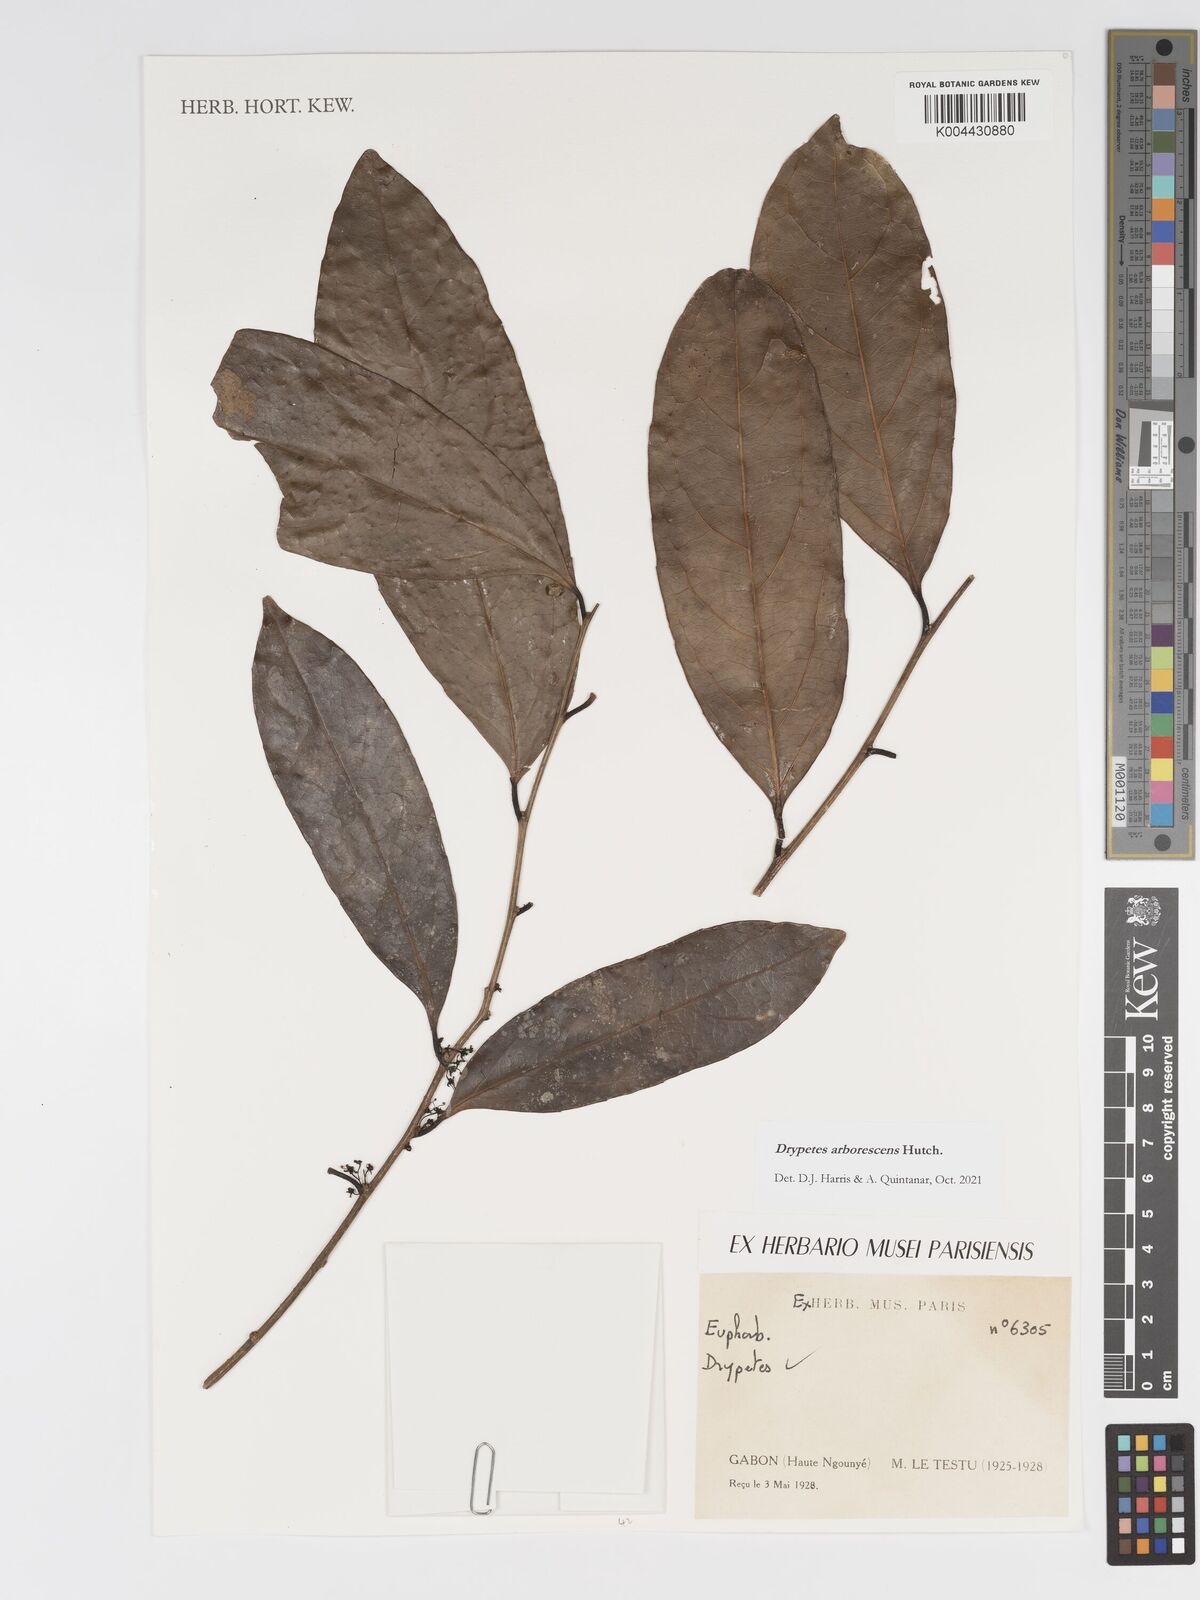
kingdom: Plantae
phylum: Tracheophyta
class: Magnoliopsida
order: Malpighiales
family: Putranjivaceae
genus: Drypetes
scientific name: Drypetes arborescens
